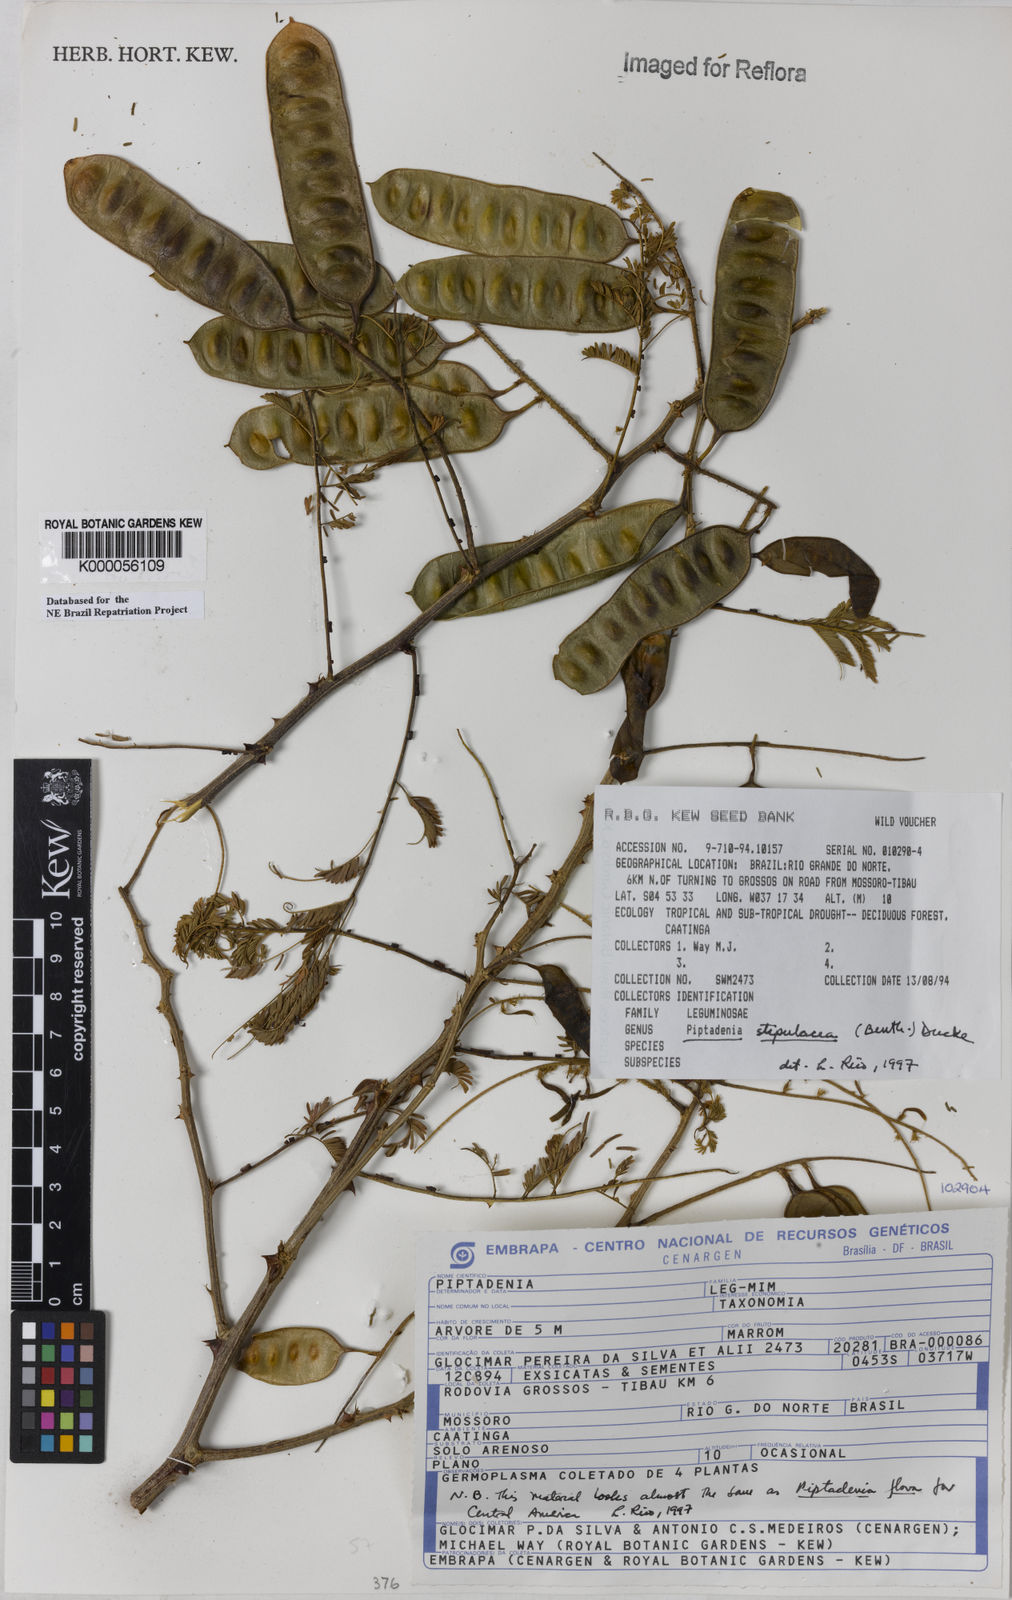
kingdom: Plantae
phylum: Tracheophyta
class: Magnoliopsida
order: Fabales
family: Fabaceae
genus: Piptadenia
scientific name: Piptadenia retusa
